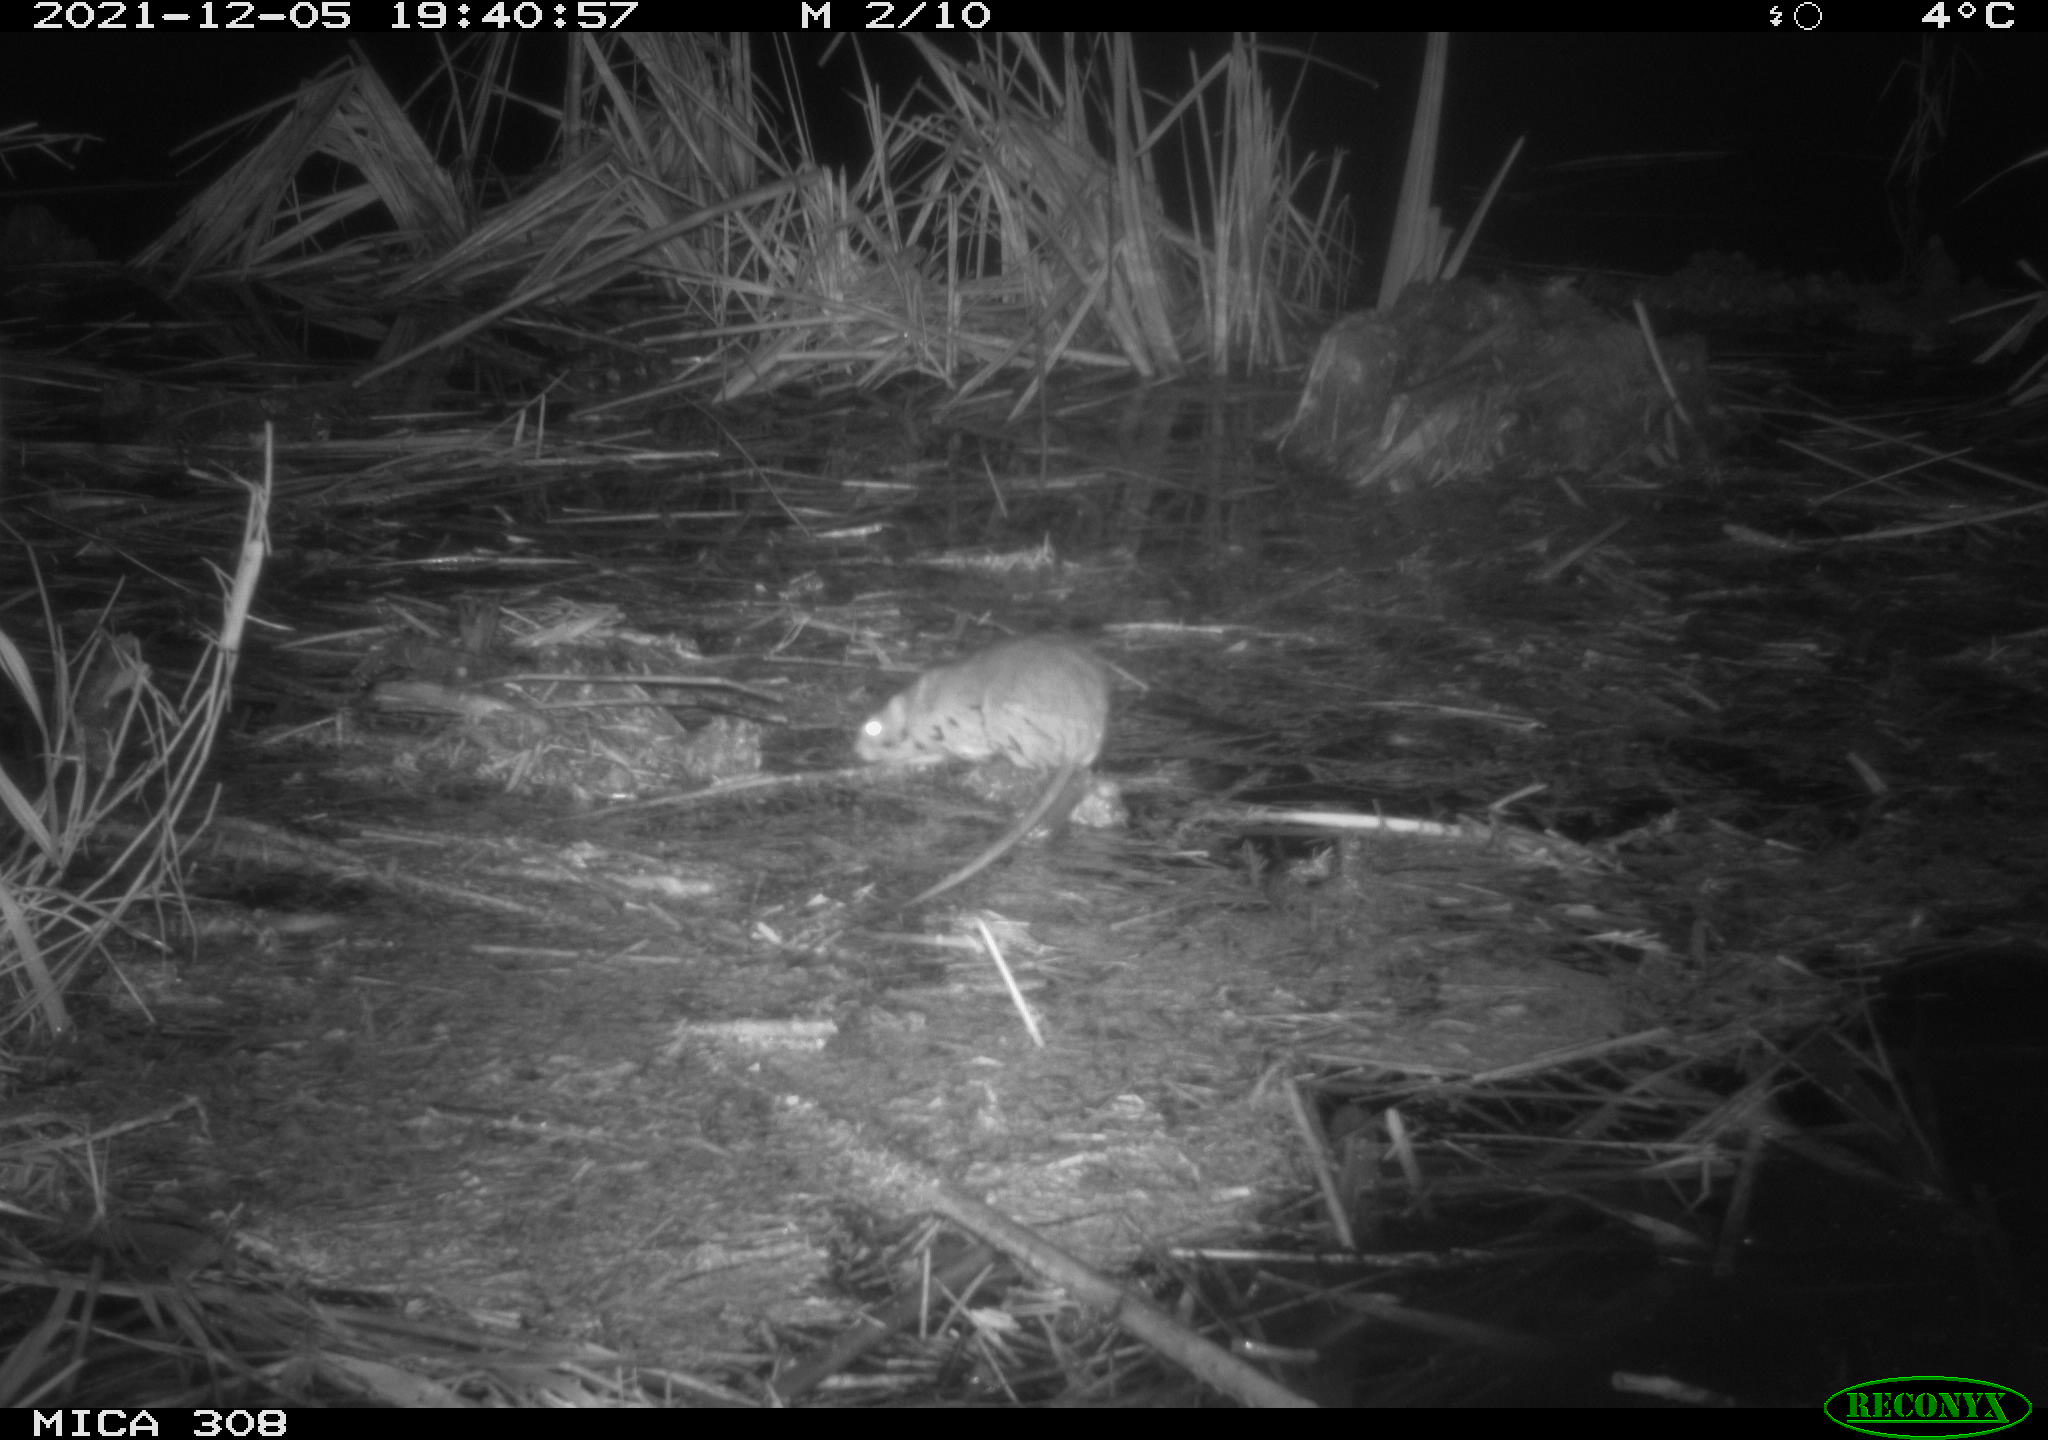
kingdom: Animalia
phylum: Chordata
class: Mammalia
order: Rodentia
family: Muridae
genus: Rattus
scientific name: Rattus norvegicus
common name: Brown rat
